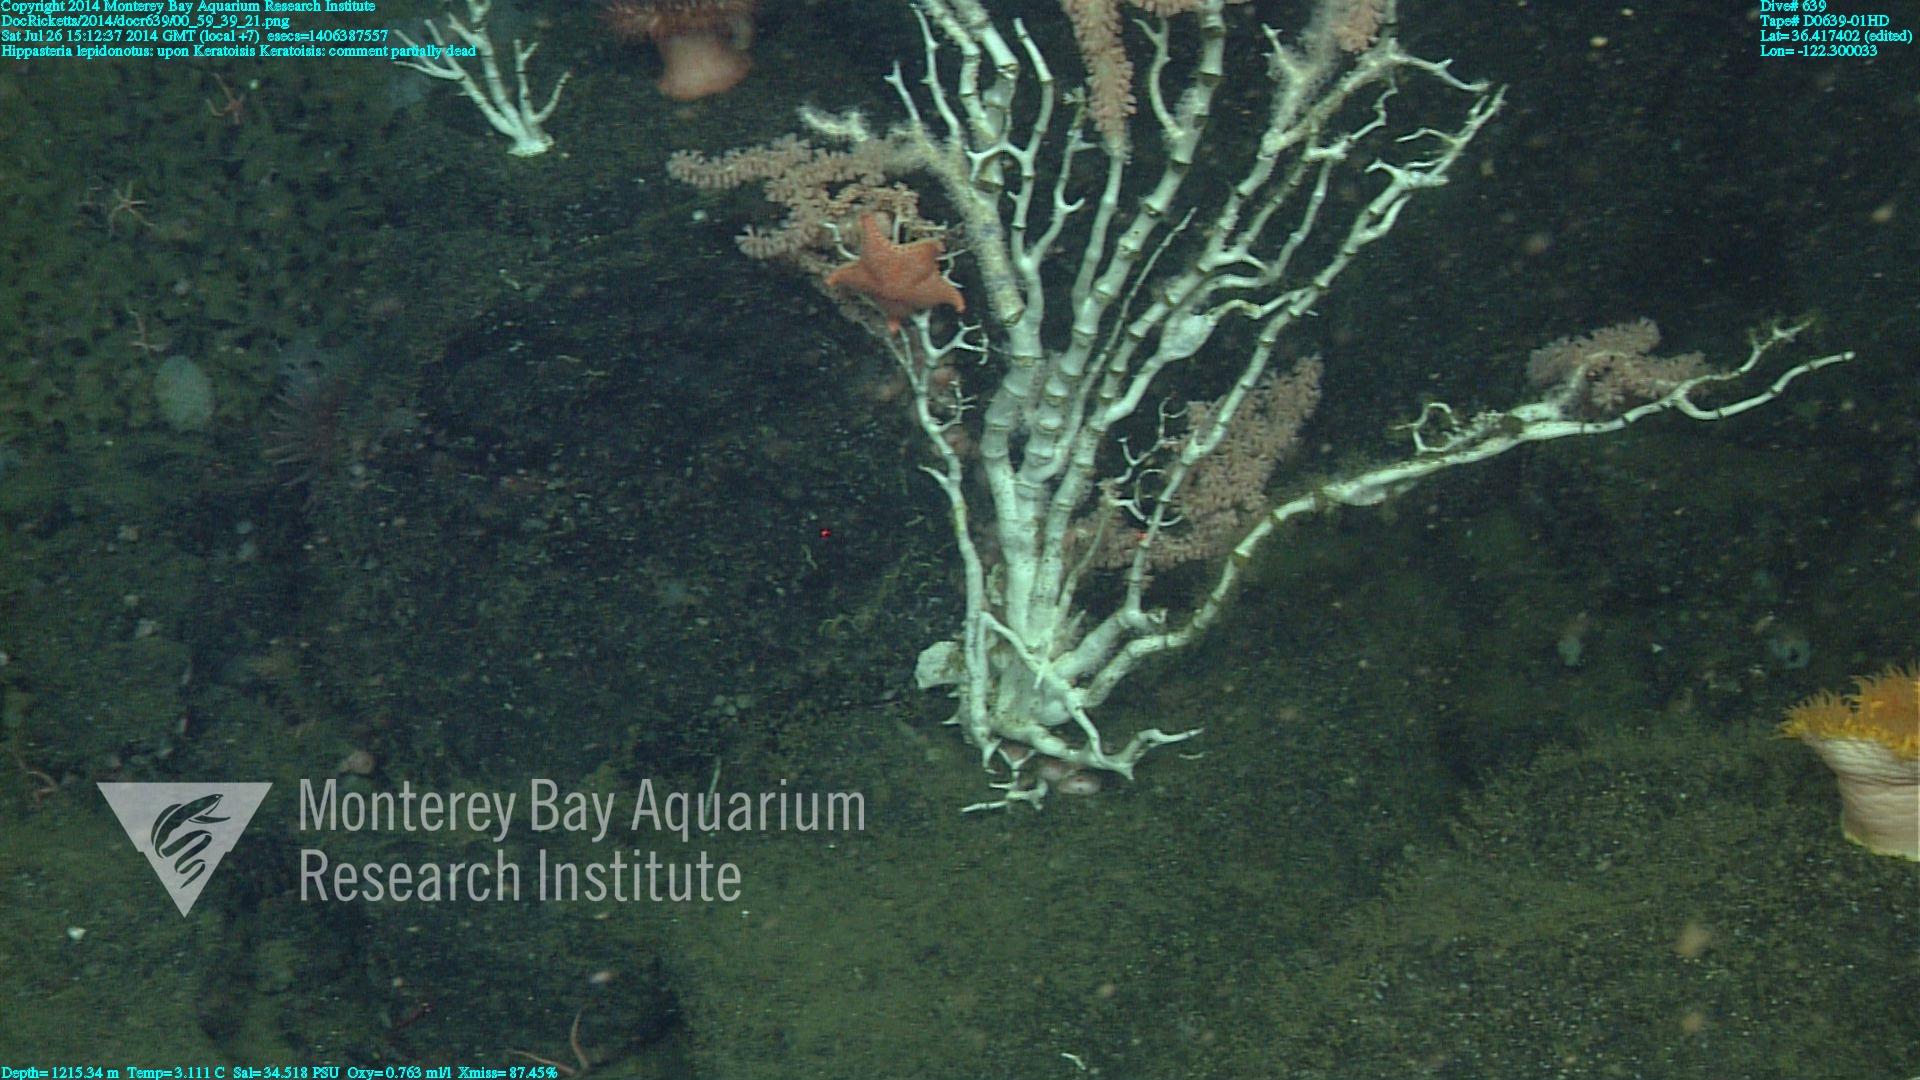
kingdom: Animalia
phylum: Cnidaria
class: Anthozoa
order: Scleralcyonacea
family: Keratoisididae
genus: Keratoisis
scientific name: Keratoisis
